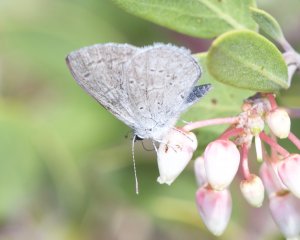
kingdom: Animalia
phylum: Arthropoda
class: Insecta
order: Lepidoptera
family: Lycaenidae
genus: Celastrina
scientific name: Celastrina ladon
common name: Echo Azure
